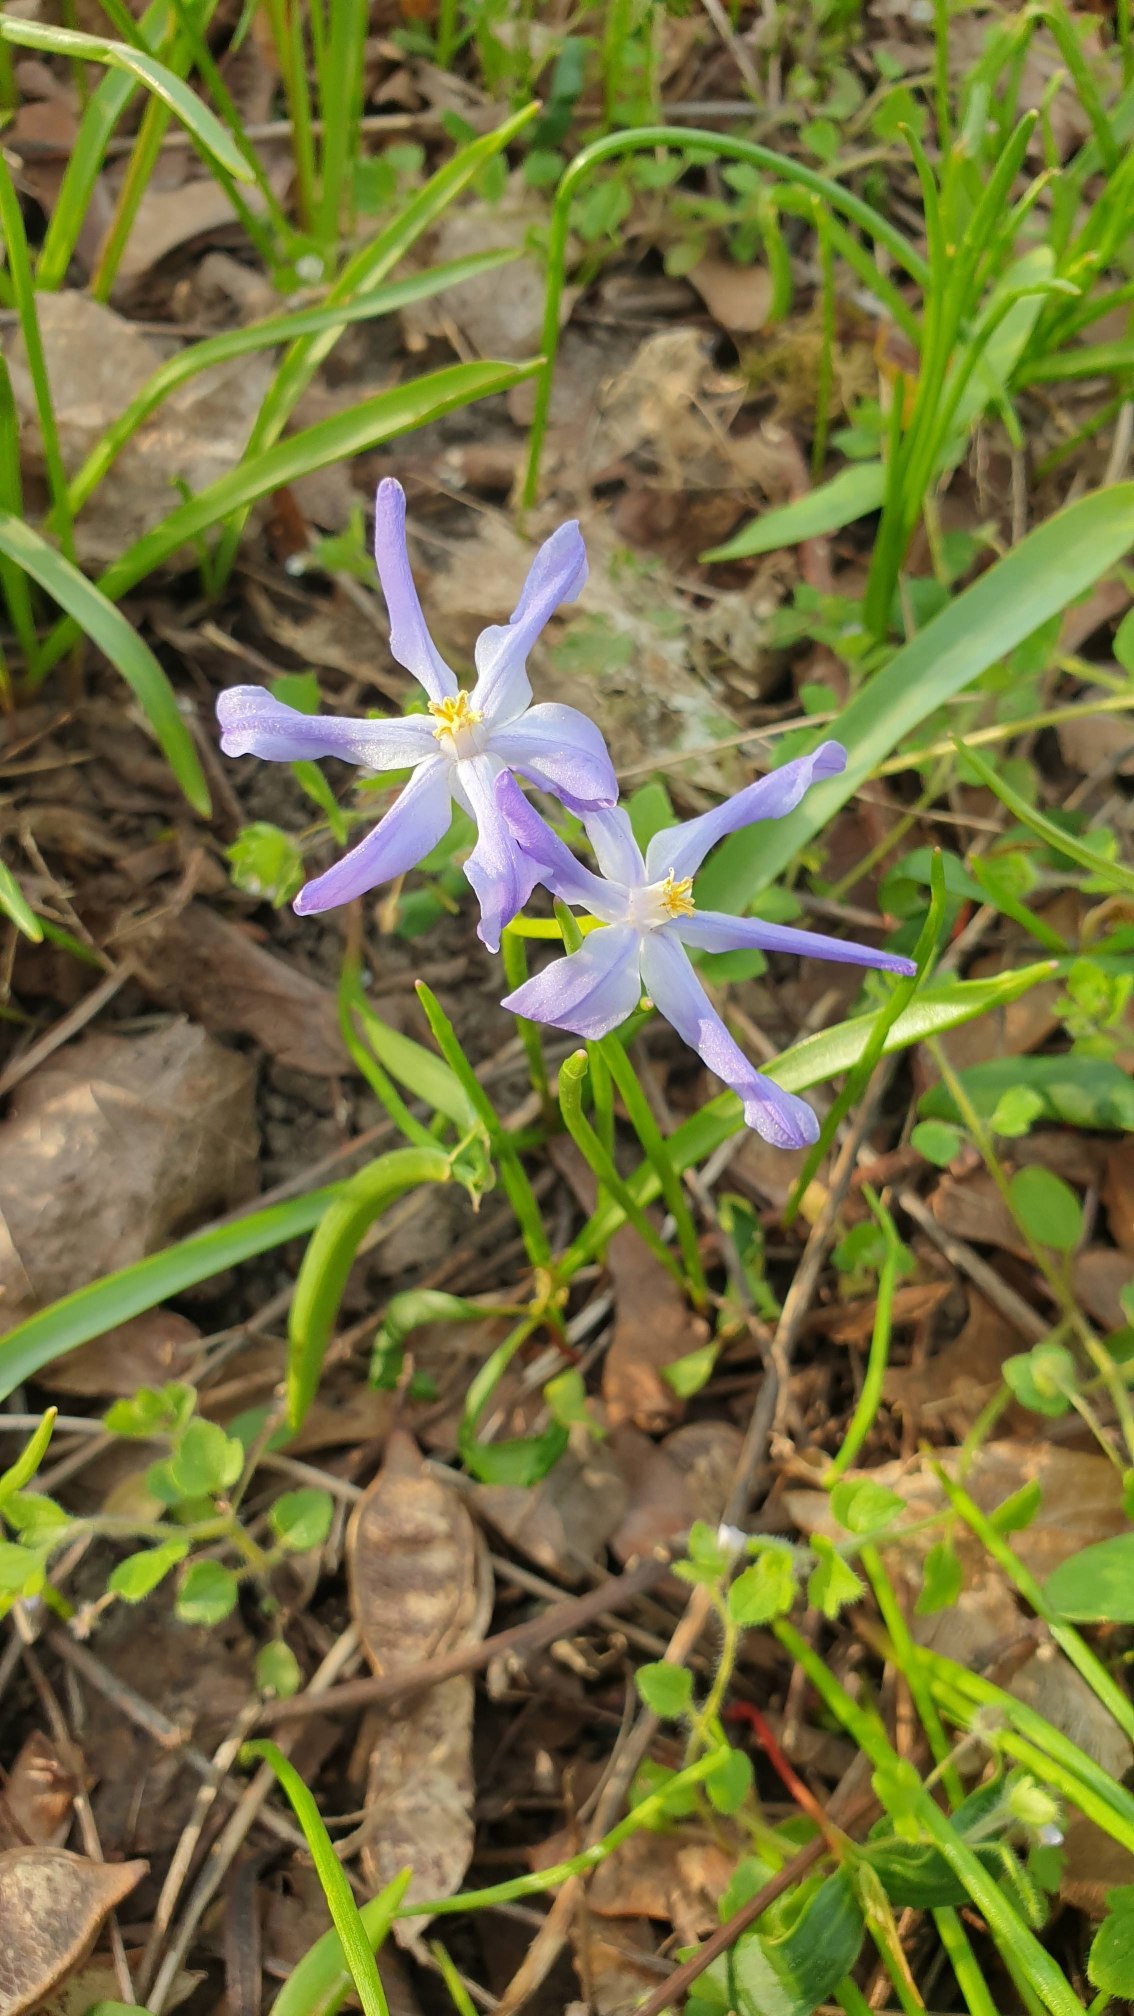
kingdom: Plantae
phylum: Tracheophyta
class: Liliopsida
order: Asparagales
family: Asparagaceae
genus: Scilla
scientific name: Scilla luciliae
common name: Stor snepryd
